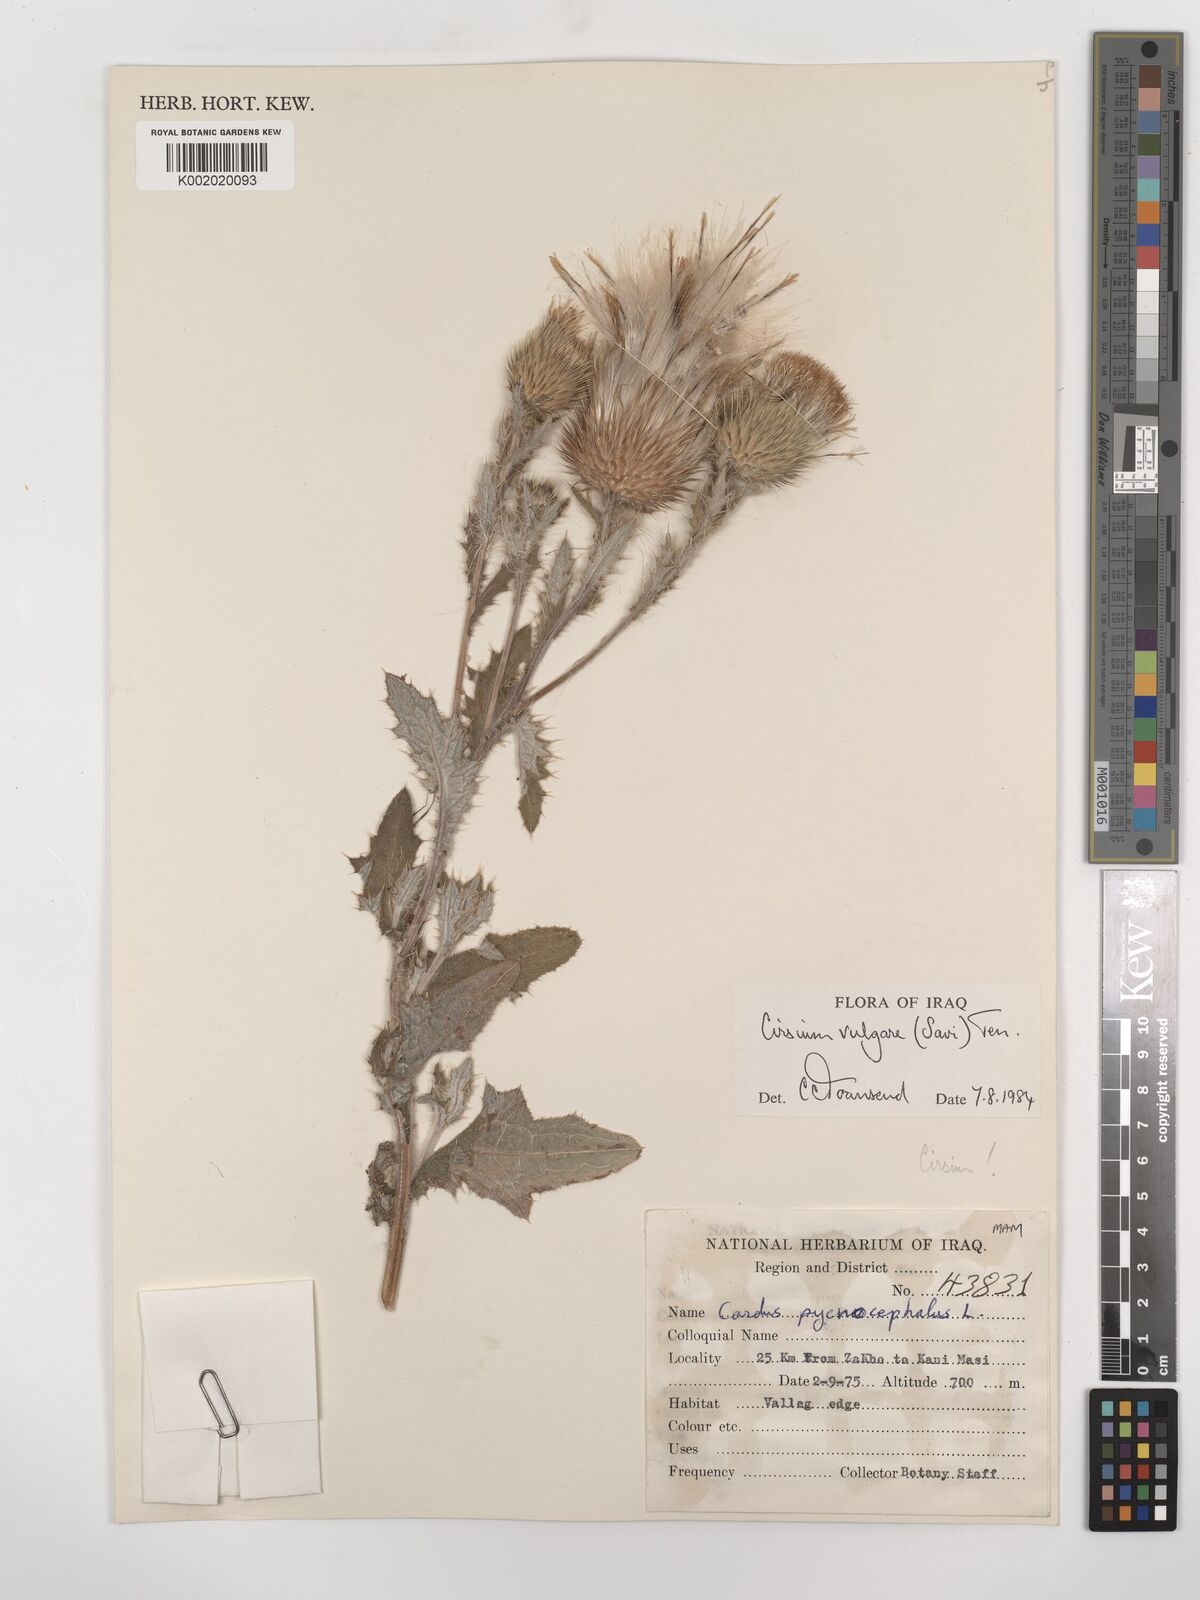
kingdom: Plantae
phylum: Tracheophyta
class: Magnoliopsida
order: Asterales
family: Asteraceae
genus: Cirsium
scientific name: Cirsium vulgare
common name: Bull thistle
